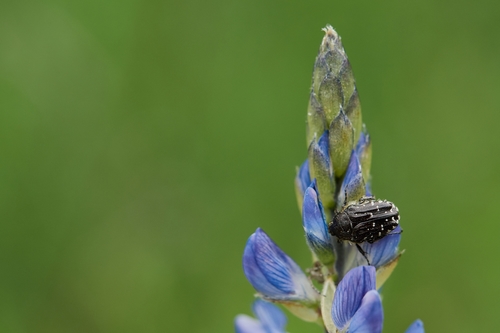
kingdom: Animalia
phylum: Arthropoda
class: Insecta
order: Coleoptera
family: Scarabaeidae
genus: Oxythyrea
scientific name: Oxythyrea funesta
